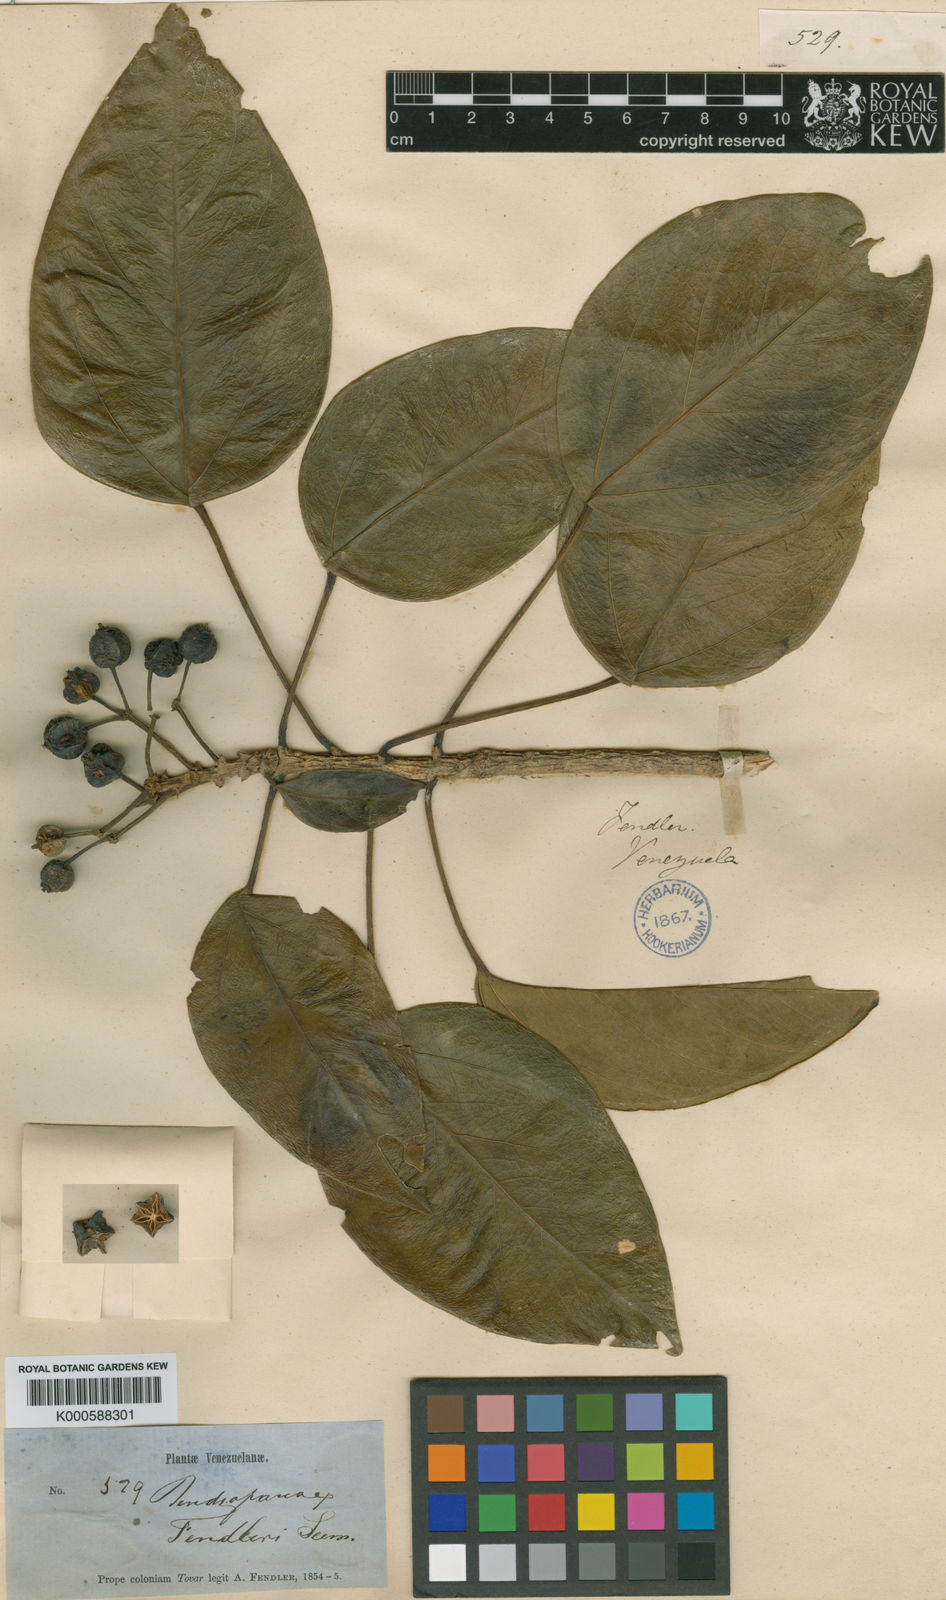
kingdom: Plantae
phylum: Tracheophyta
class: Magnoliopsida
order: Apiales
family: Araliaceae
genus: Dendropanax
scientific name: Dendropanax fendleri
